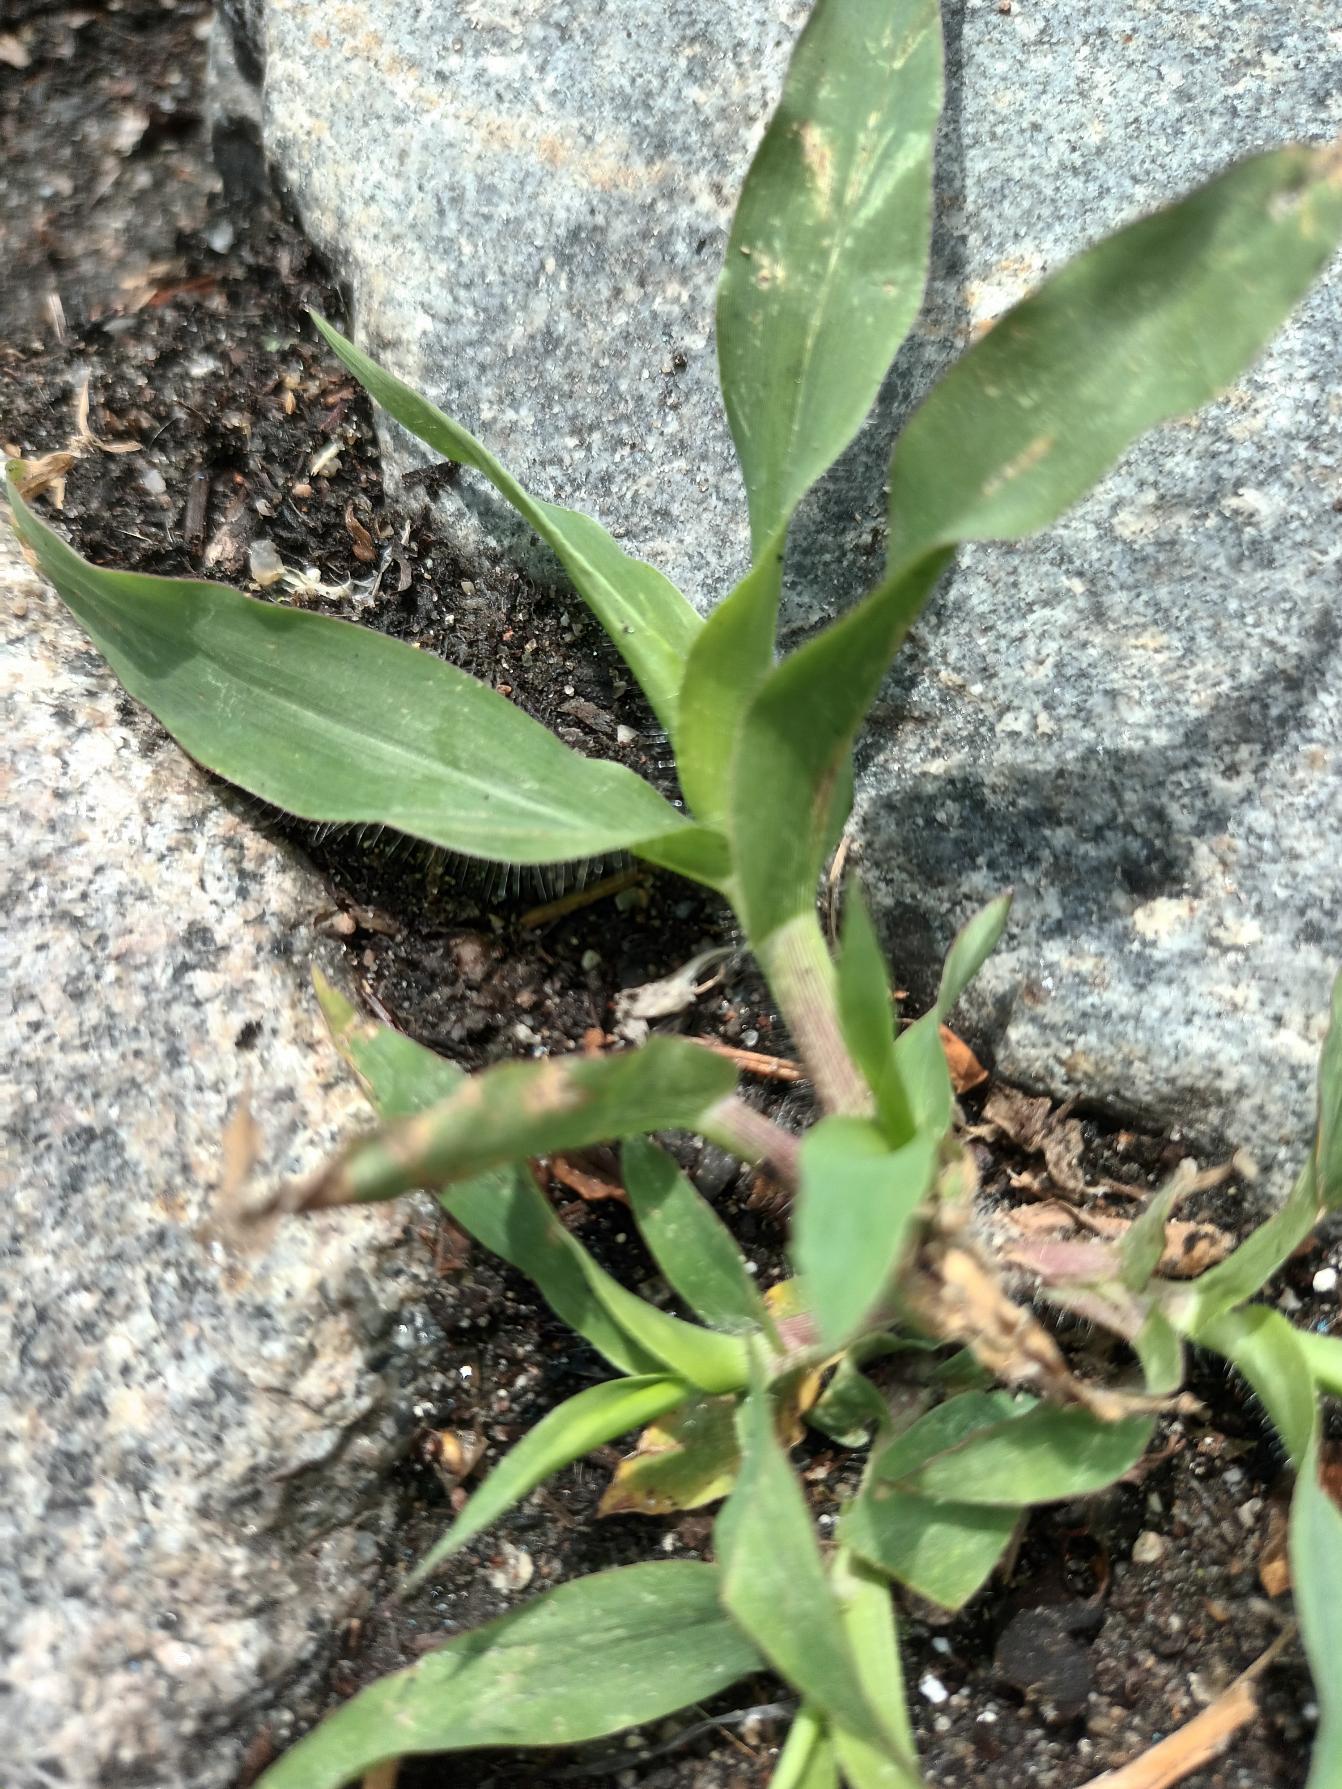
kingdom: Plantae
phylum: Tracheophyta
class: Liliopsida
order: Poales
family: Poaceae
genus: Panicum
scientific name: Panicum capillare
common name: Hårfin hirse
